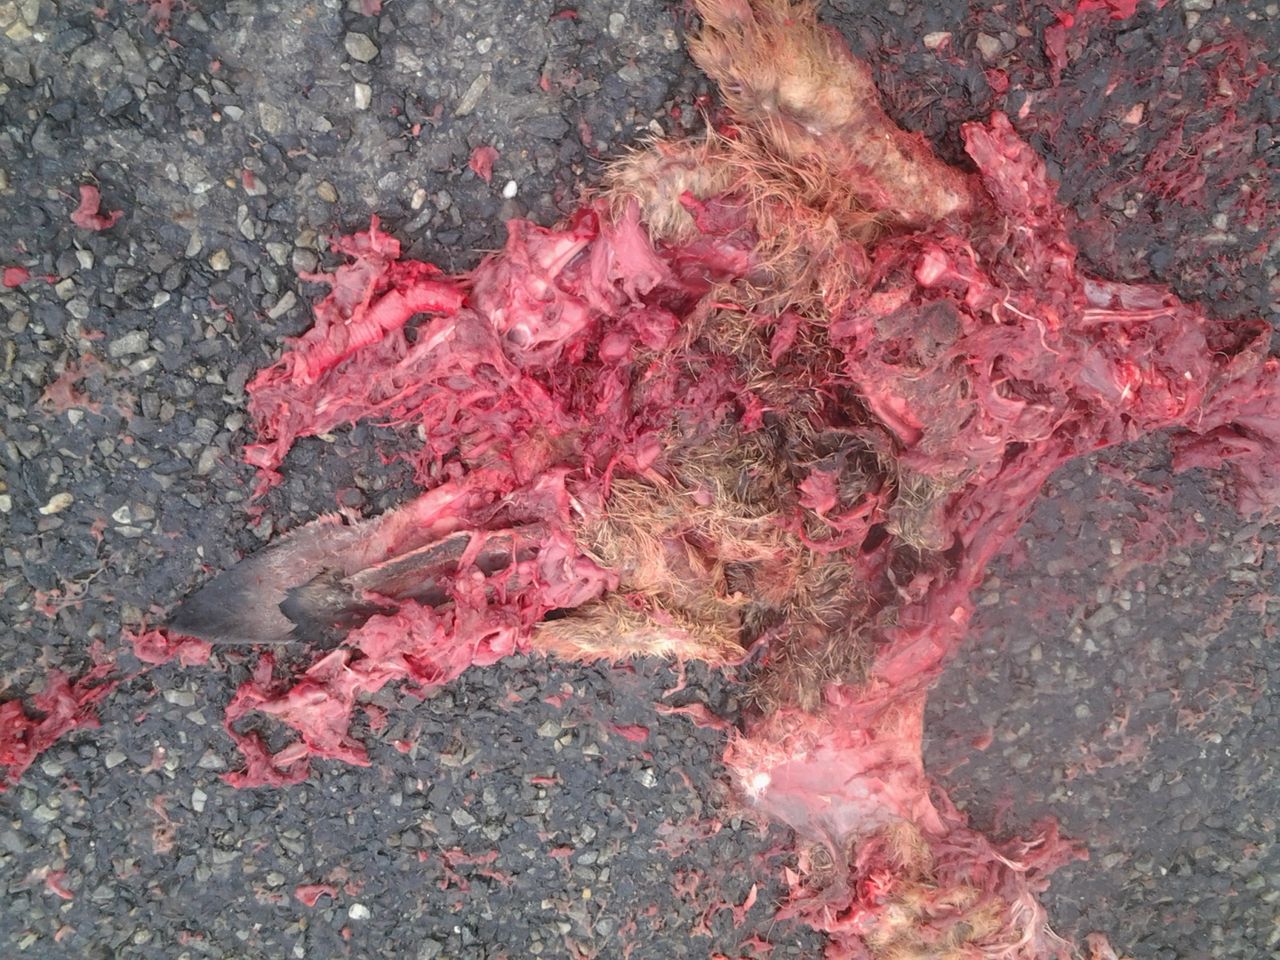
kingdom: Animalia
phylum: Chordata
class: Mammalia
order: Lagomorpha
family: Leporidae
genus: Lepus
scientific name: Lepus europaeus
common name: European hare
